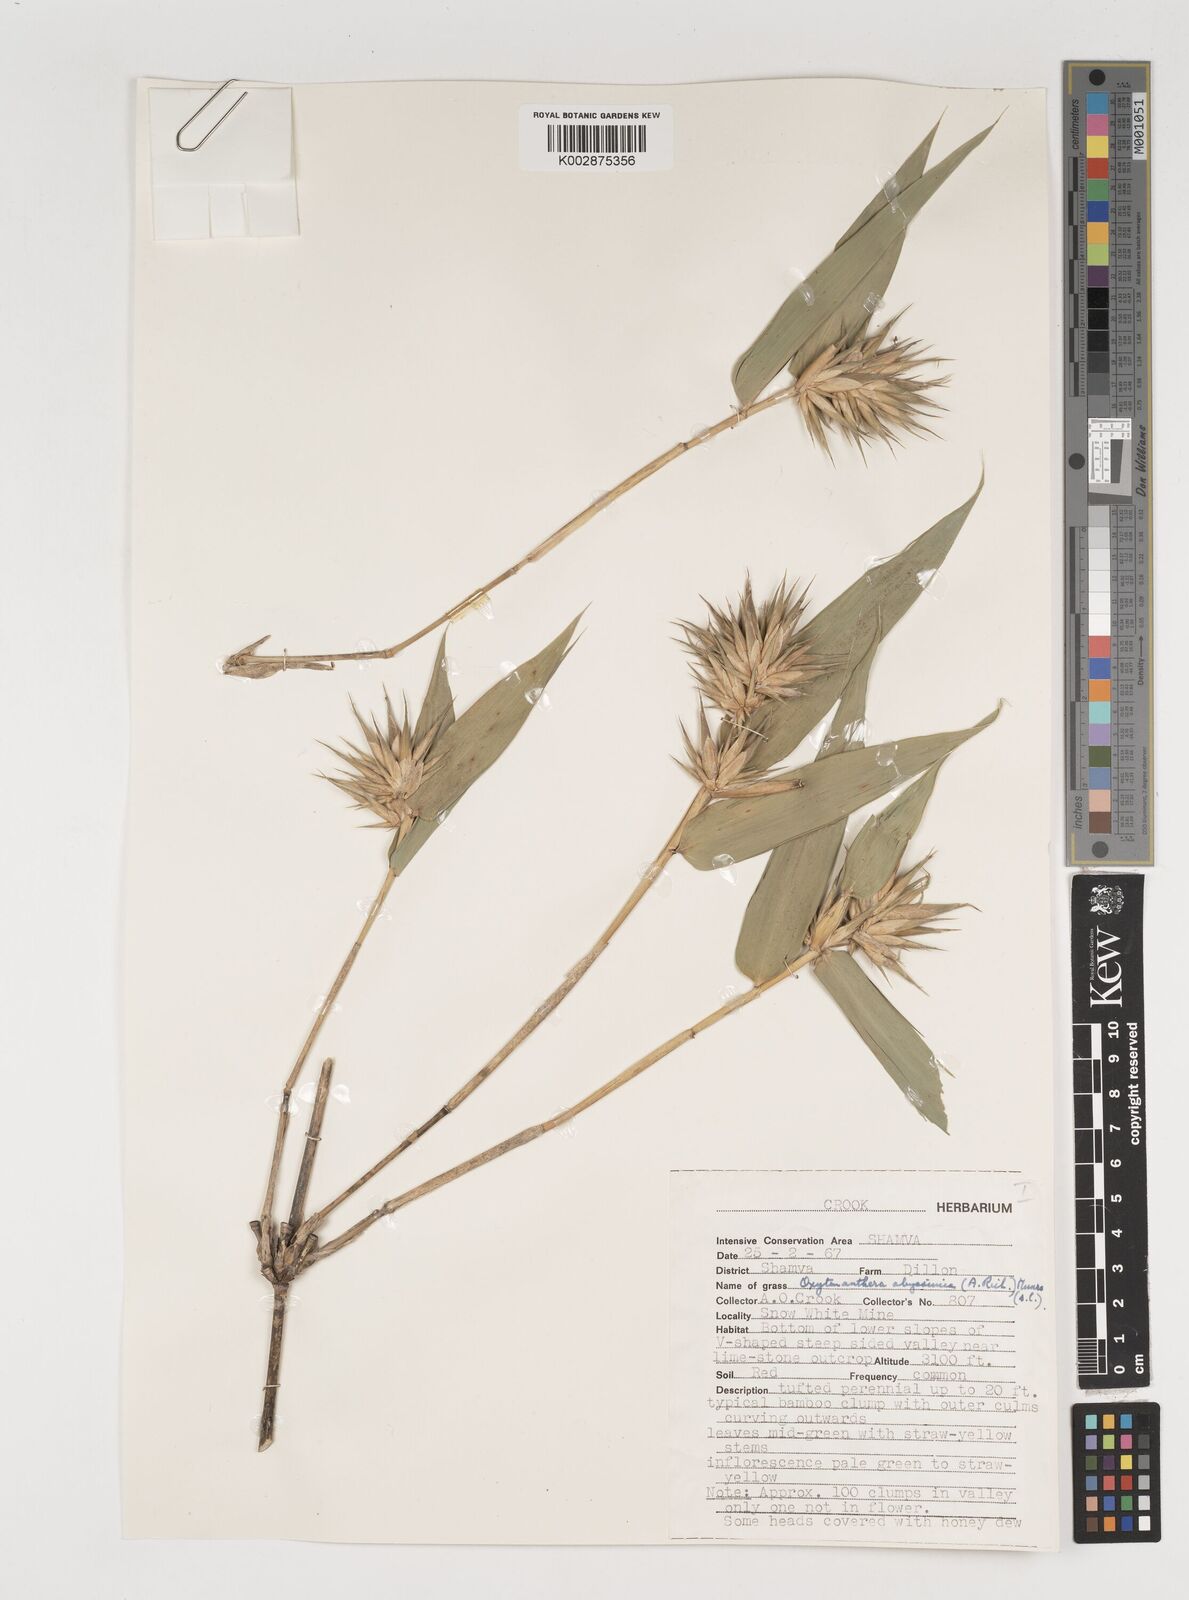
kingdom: Plantae
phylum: Tracheophyta
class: Liliopsida
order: Poales
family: Poaceae
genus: Oxytenanthera
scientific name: Oxytenanthera abyssinica
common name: Wine bamboo
